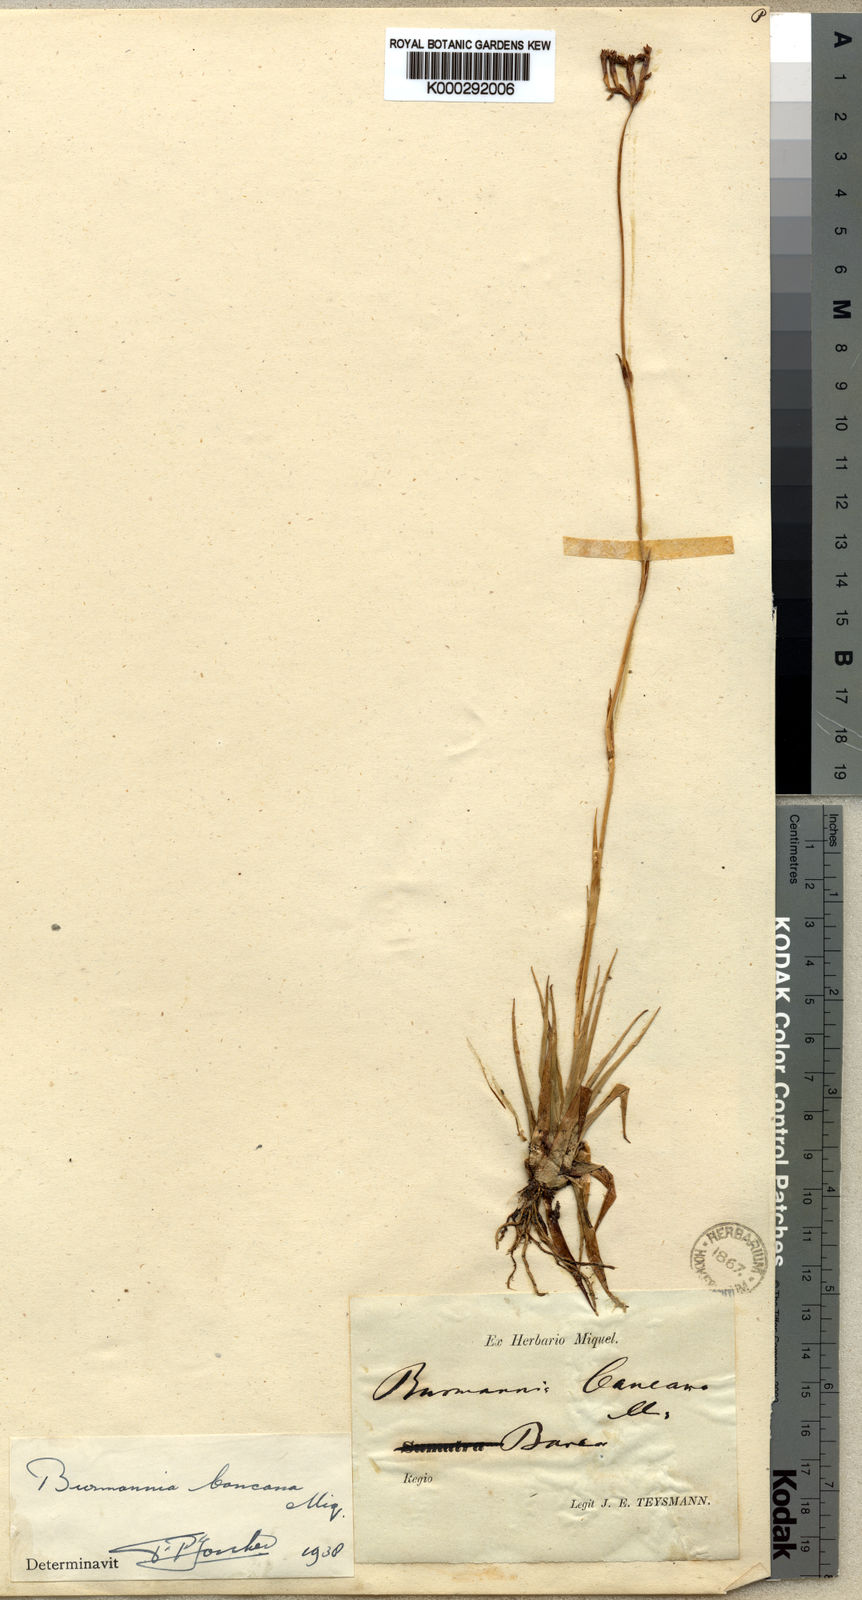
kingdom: Plantae
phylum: Tracheophyta
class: Liliopsida
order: Dioscoreales
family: Burmanniaceae
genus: Burmannia
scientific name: Burmannia disticha
